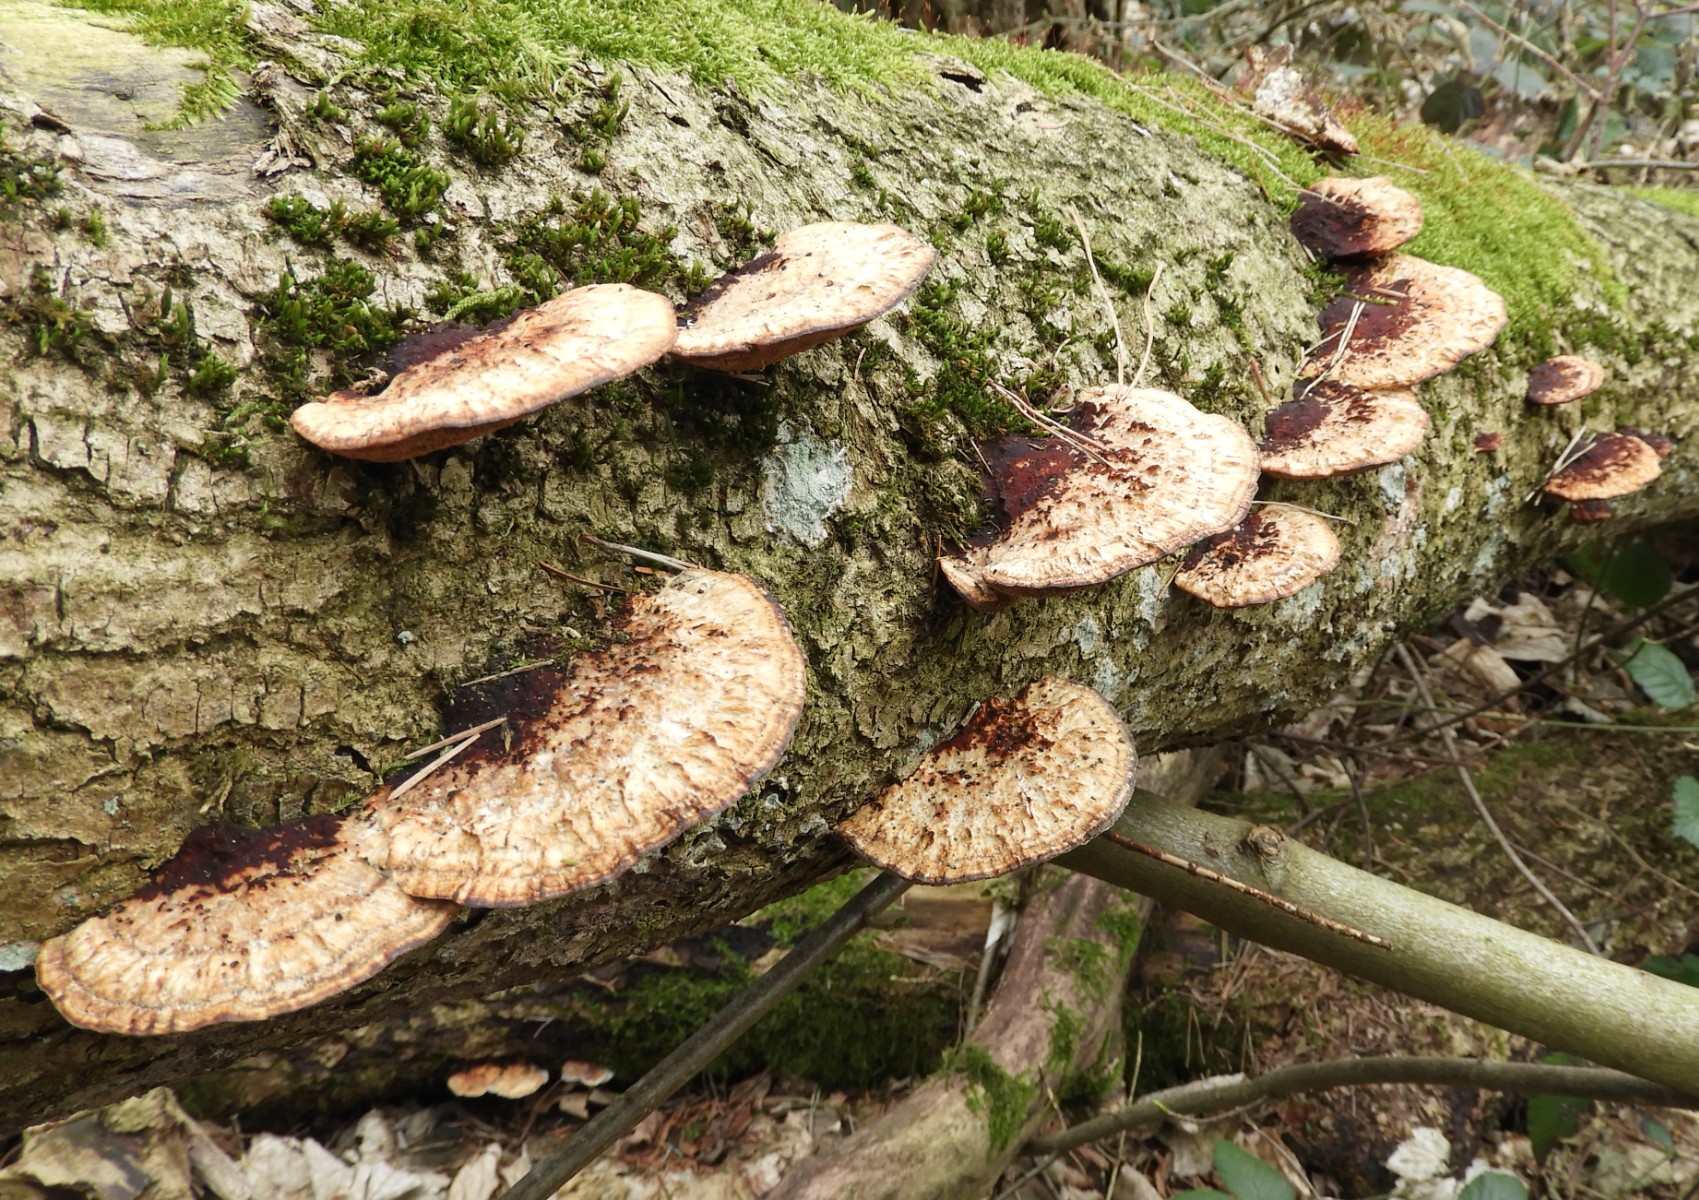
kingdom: Fungi
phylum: Basidiomycota
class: Agaricomycetes
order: Polyporales
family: Polyporaceae
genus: Daedaleopsis
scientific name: Daedaleopsis confragosa
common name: rødmende læderporesvamp
